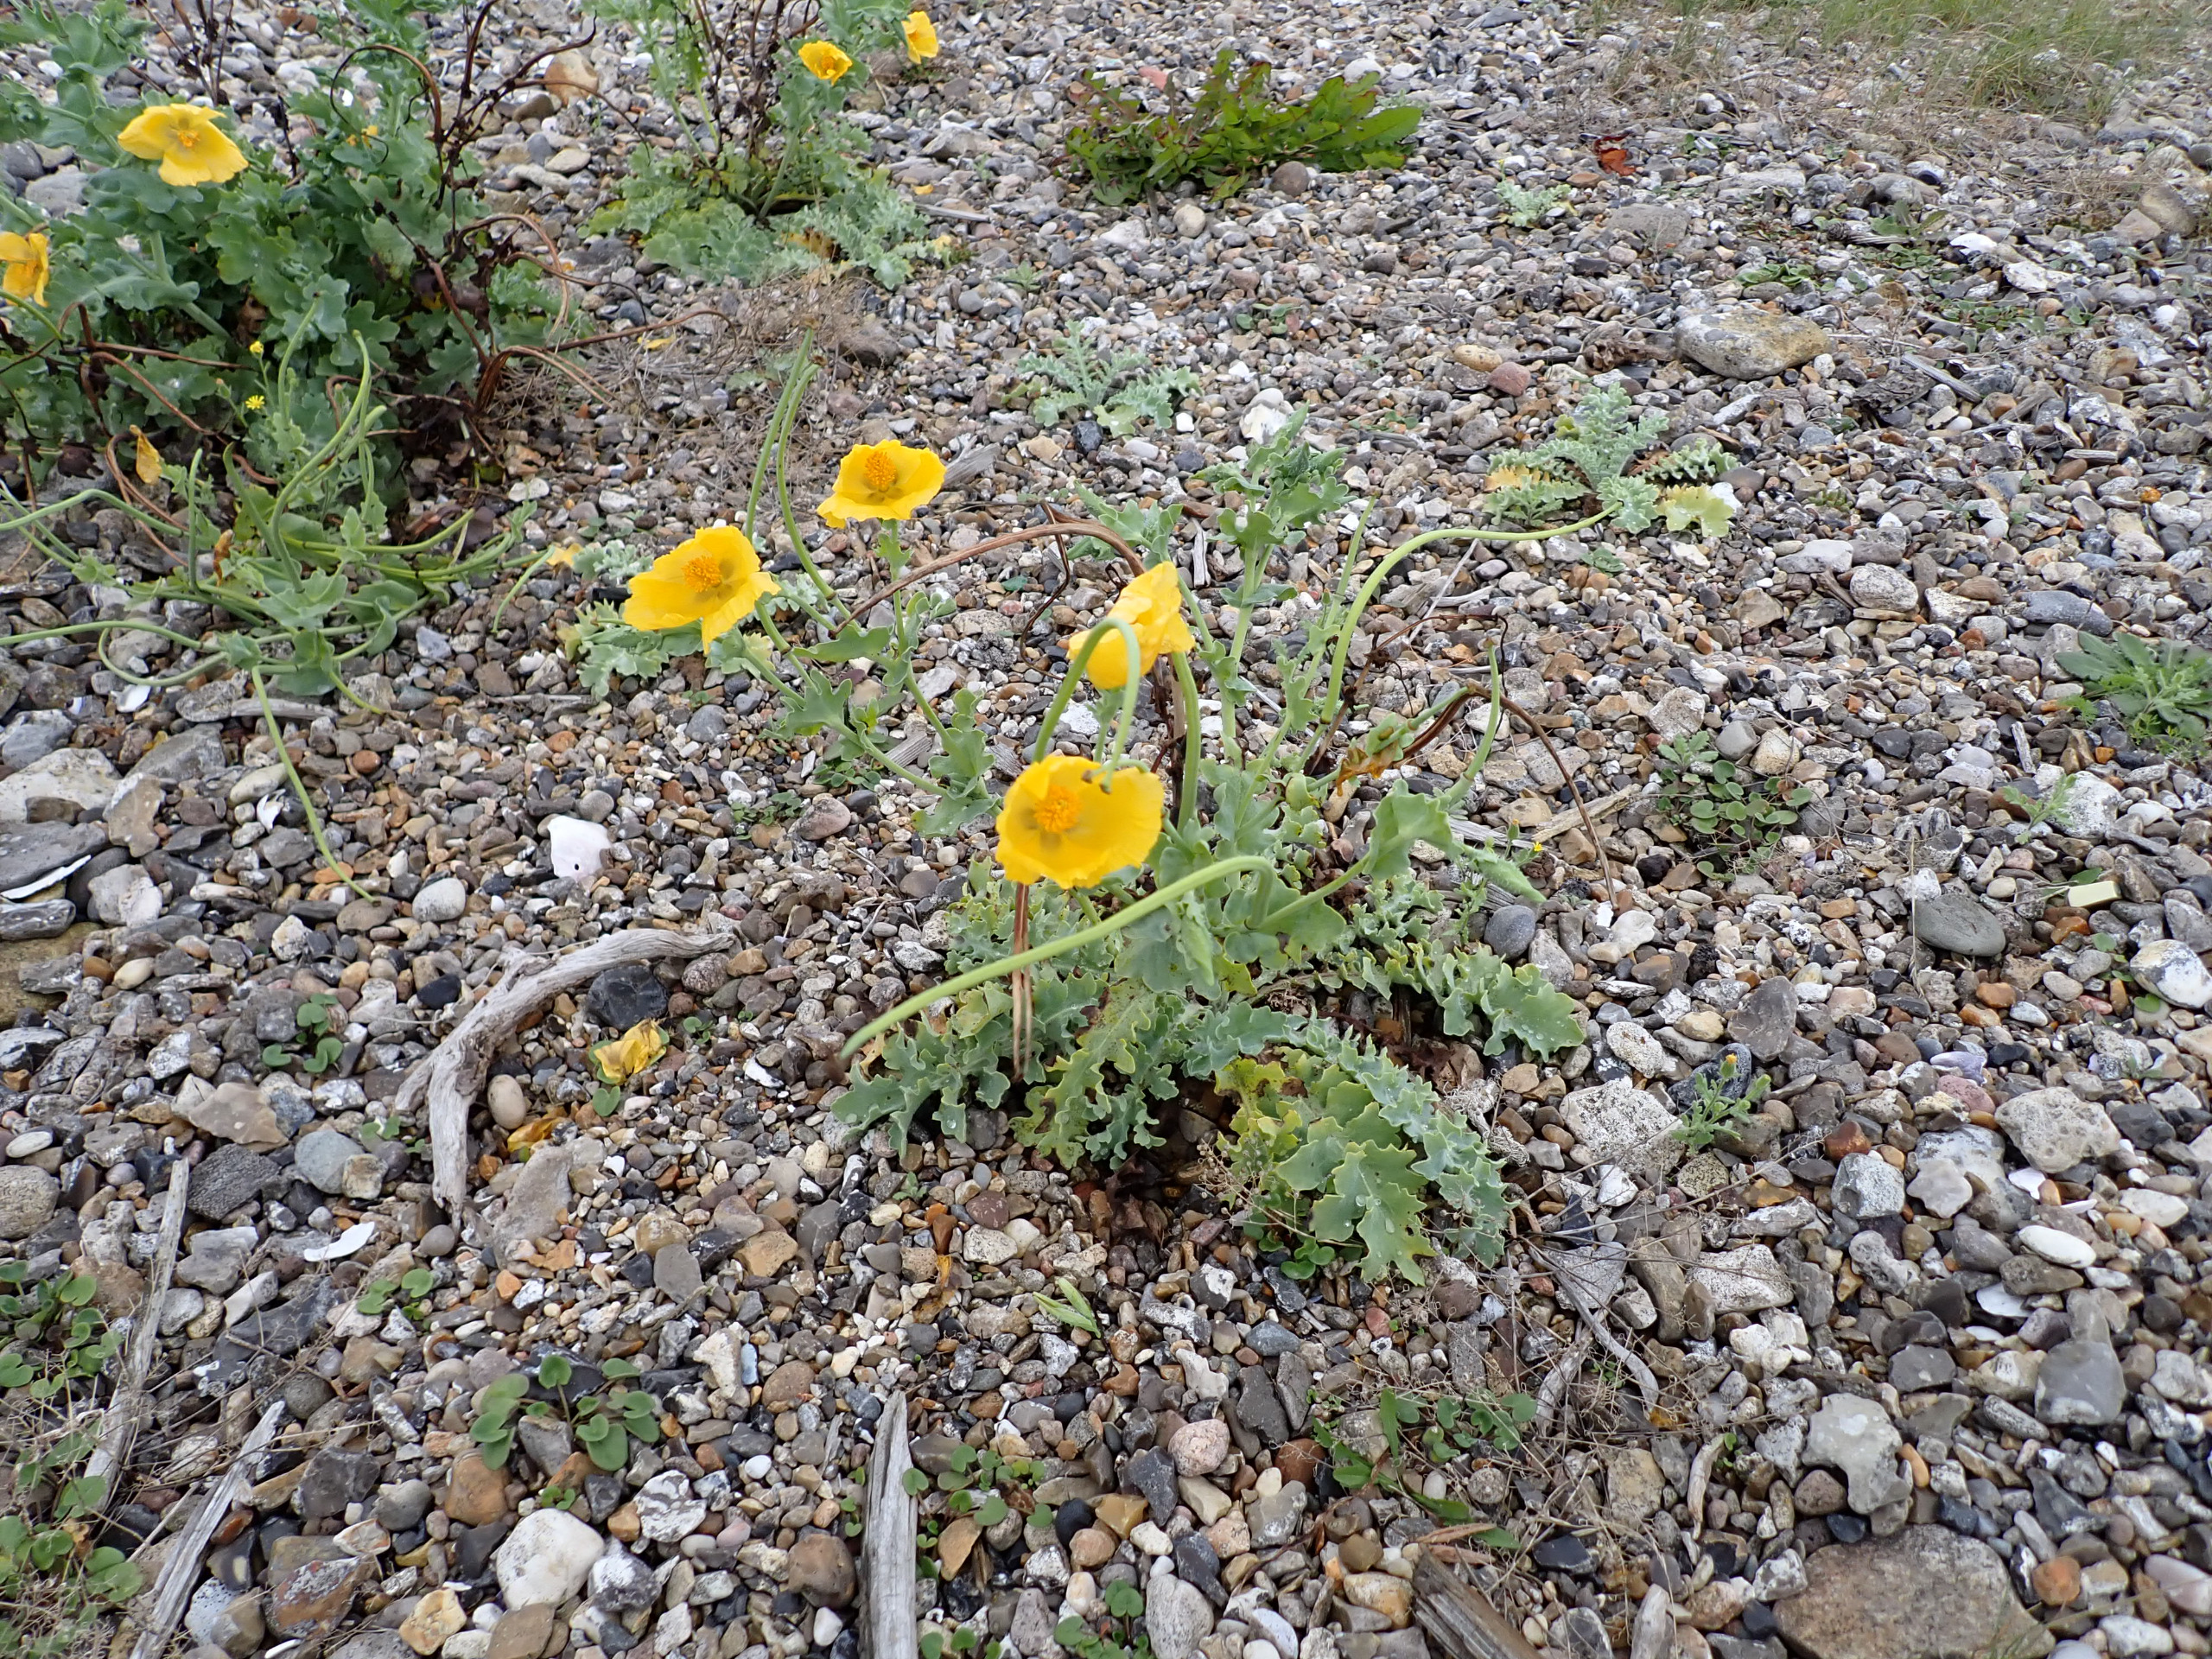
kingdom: Plantae
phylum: Tracheophyta
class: Magnoliopsida
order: Ranunculales
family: Papaveraceae
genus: Glaucium
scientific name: Glaucium flavum
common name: Hornskulpe
